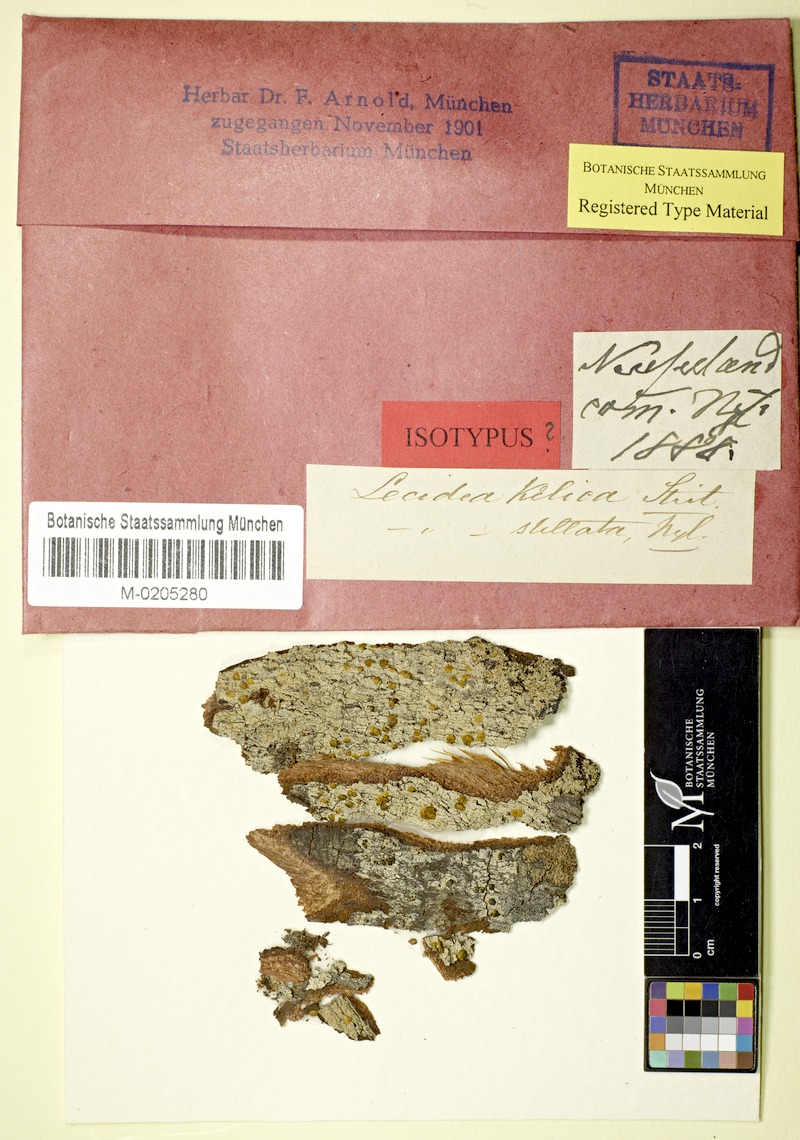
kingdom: Fungi
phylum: Ascomycota
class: Lecanoromycetes
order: Lecanorales
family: Ramalinaceae
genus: Stirtoniella
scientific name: Stirtoniella kelica
